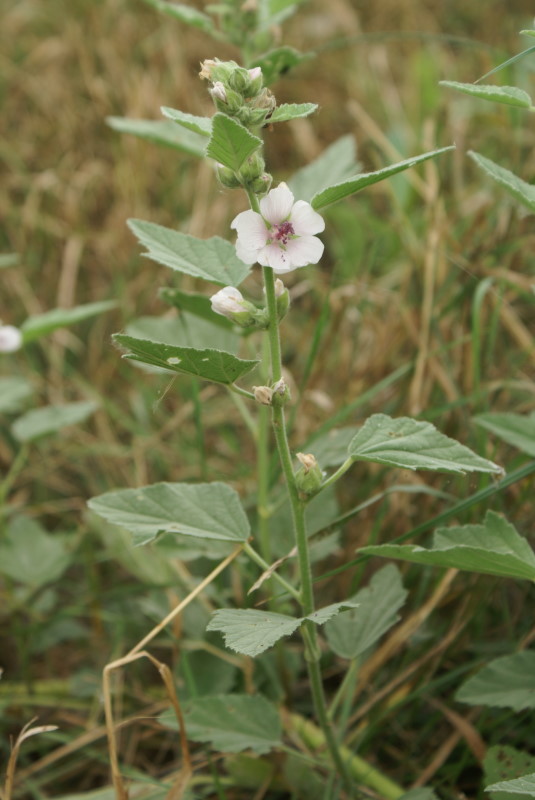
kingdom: Plantae
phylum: Tracheophyta
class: Magnoliopsida
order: Malvales
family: Malvaceae
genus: Althaea
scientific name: Althaea officinalis
